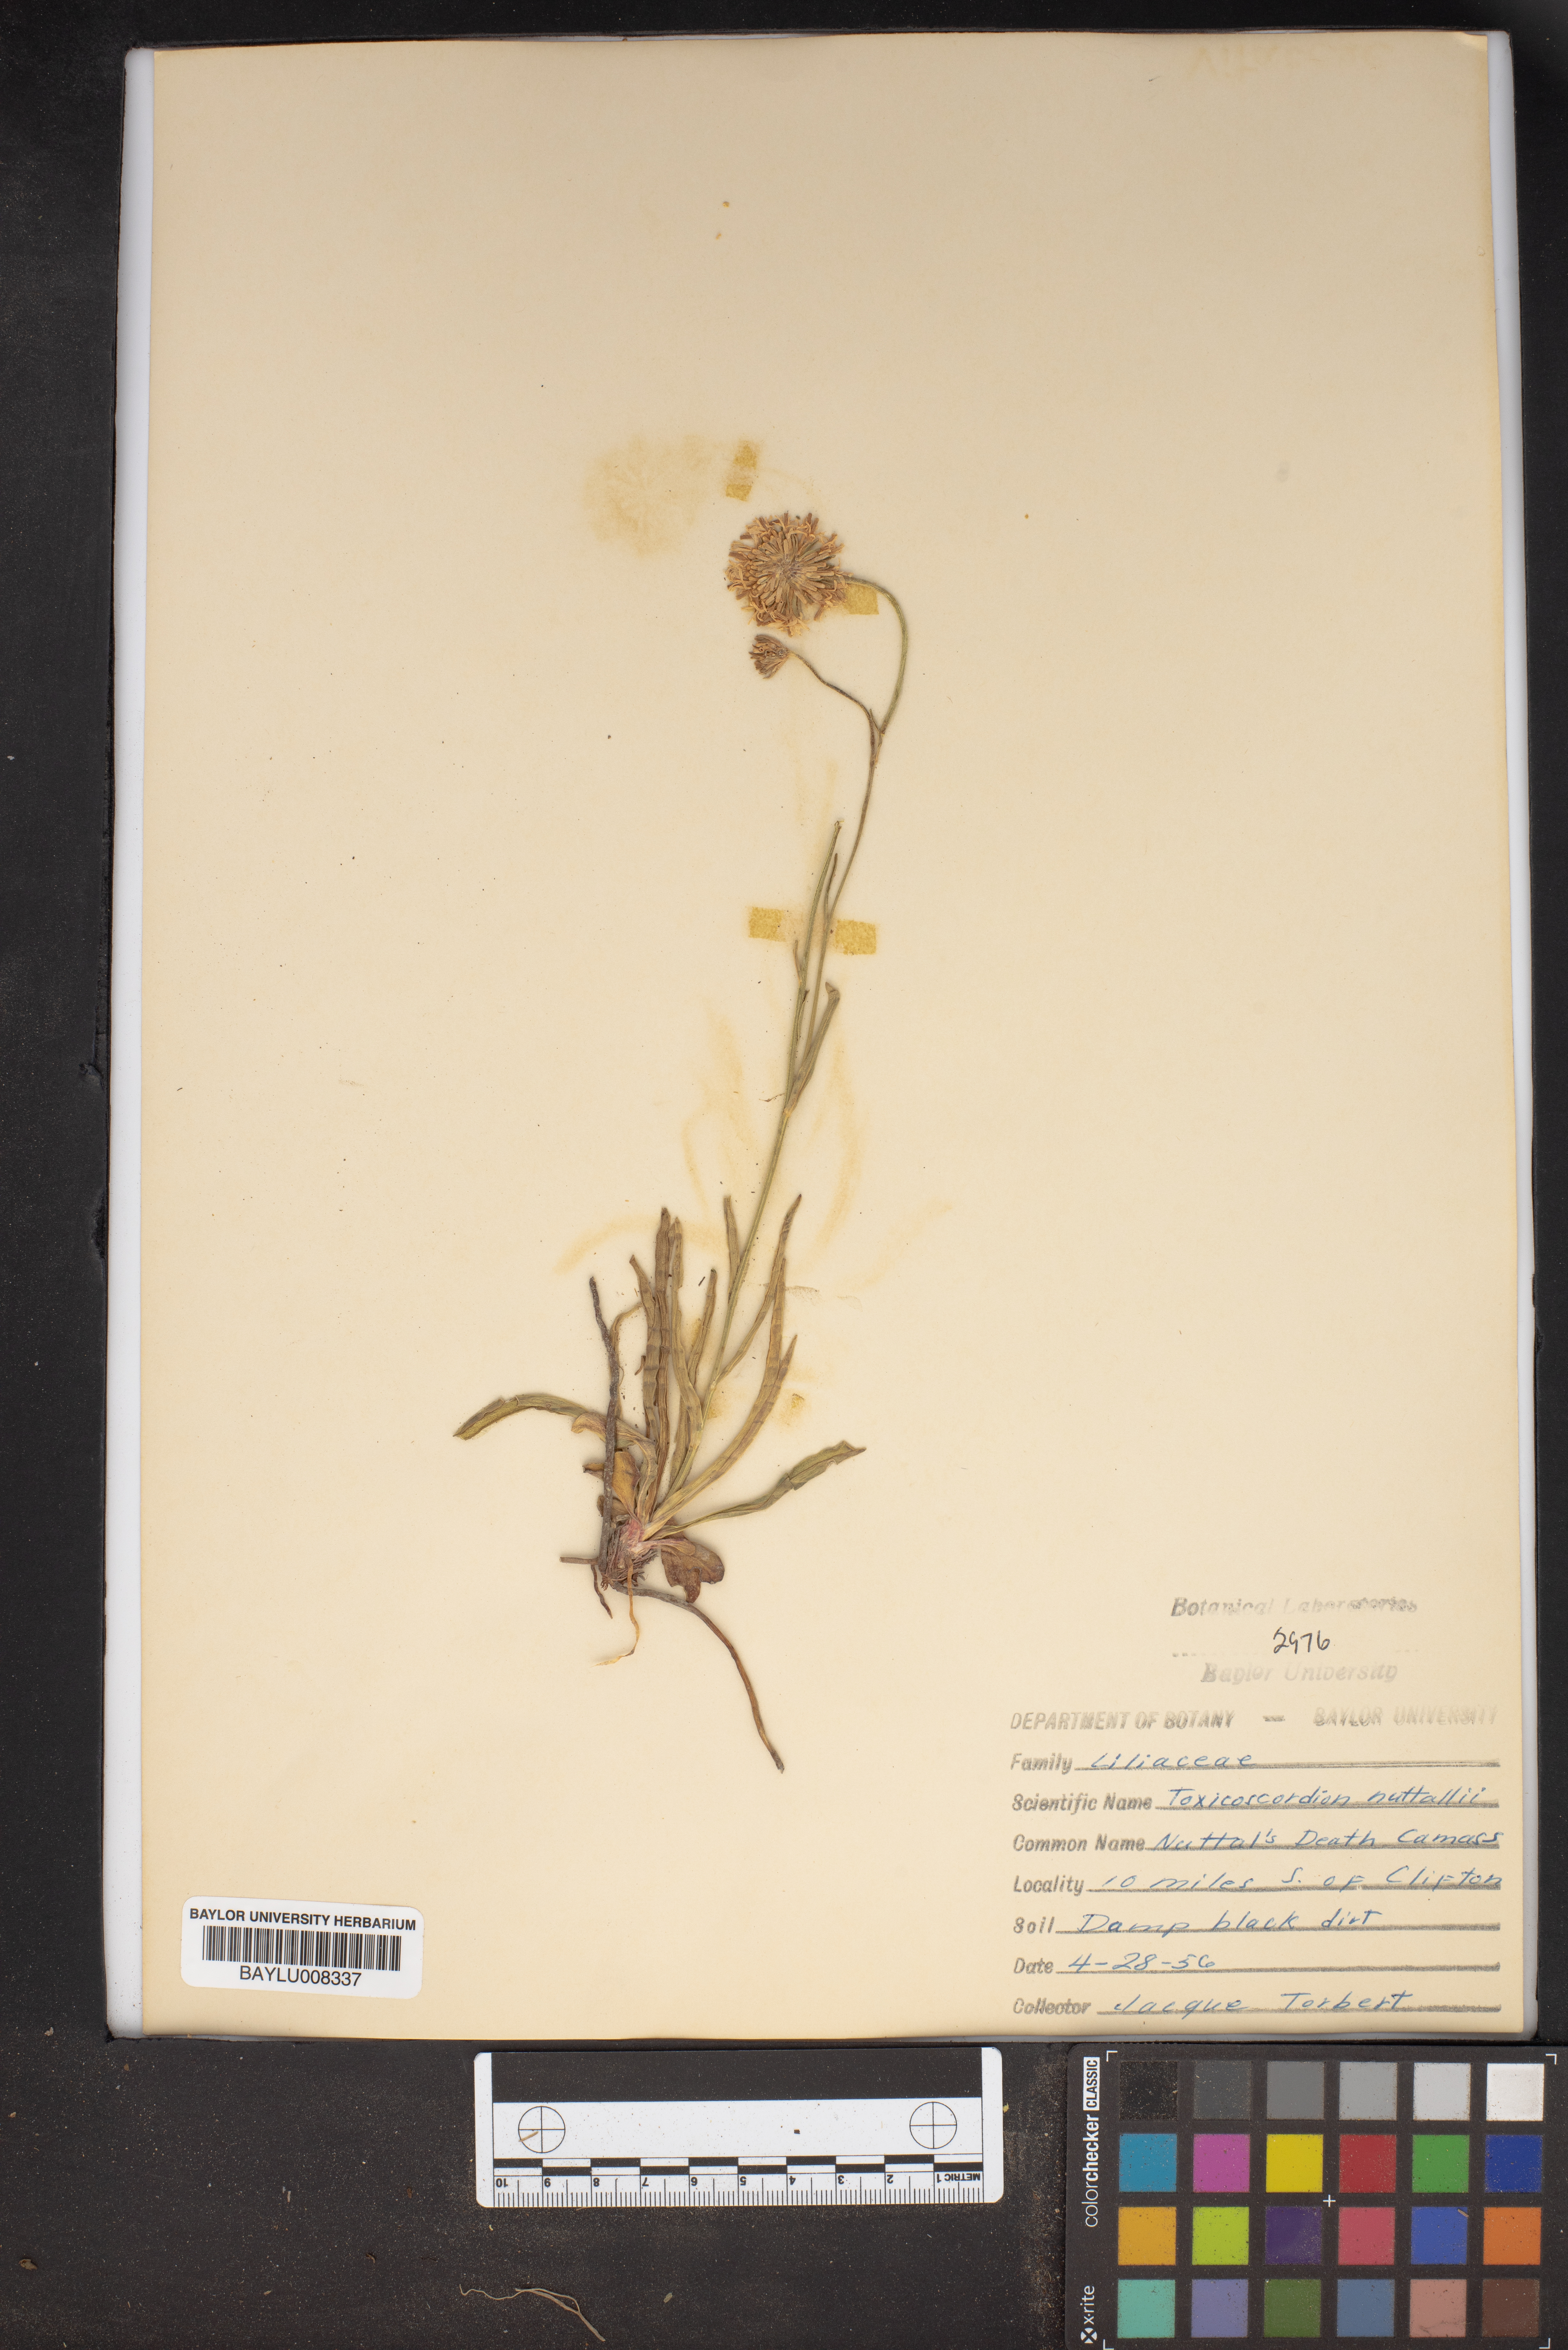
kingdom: Plantae
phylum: Tracheophyta
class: Liliopsida
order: Liliales
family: Melanthiaceae
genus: Toxicoscordion
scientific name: Toxicoscordion nuttallii
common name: Poison sego
